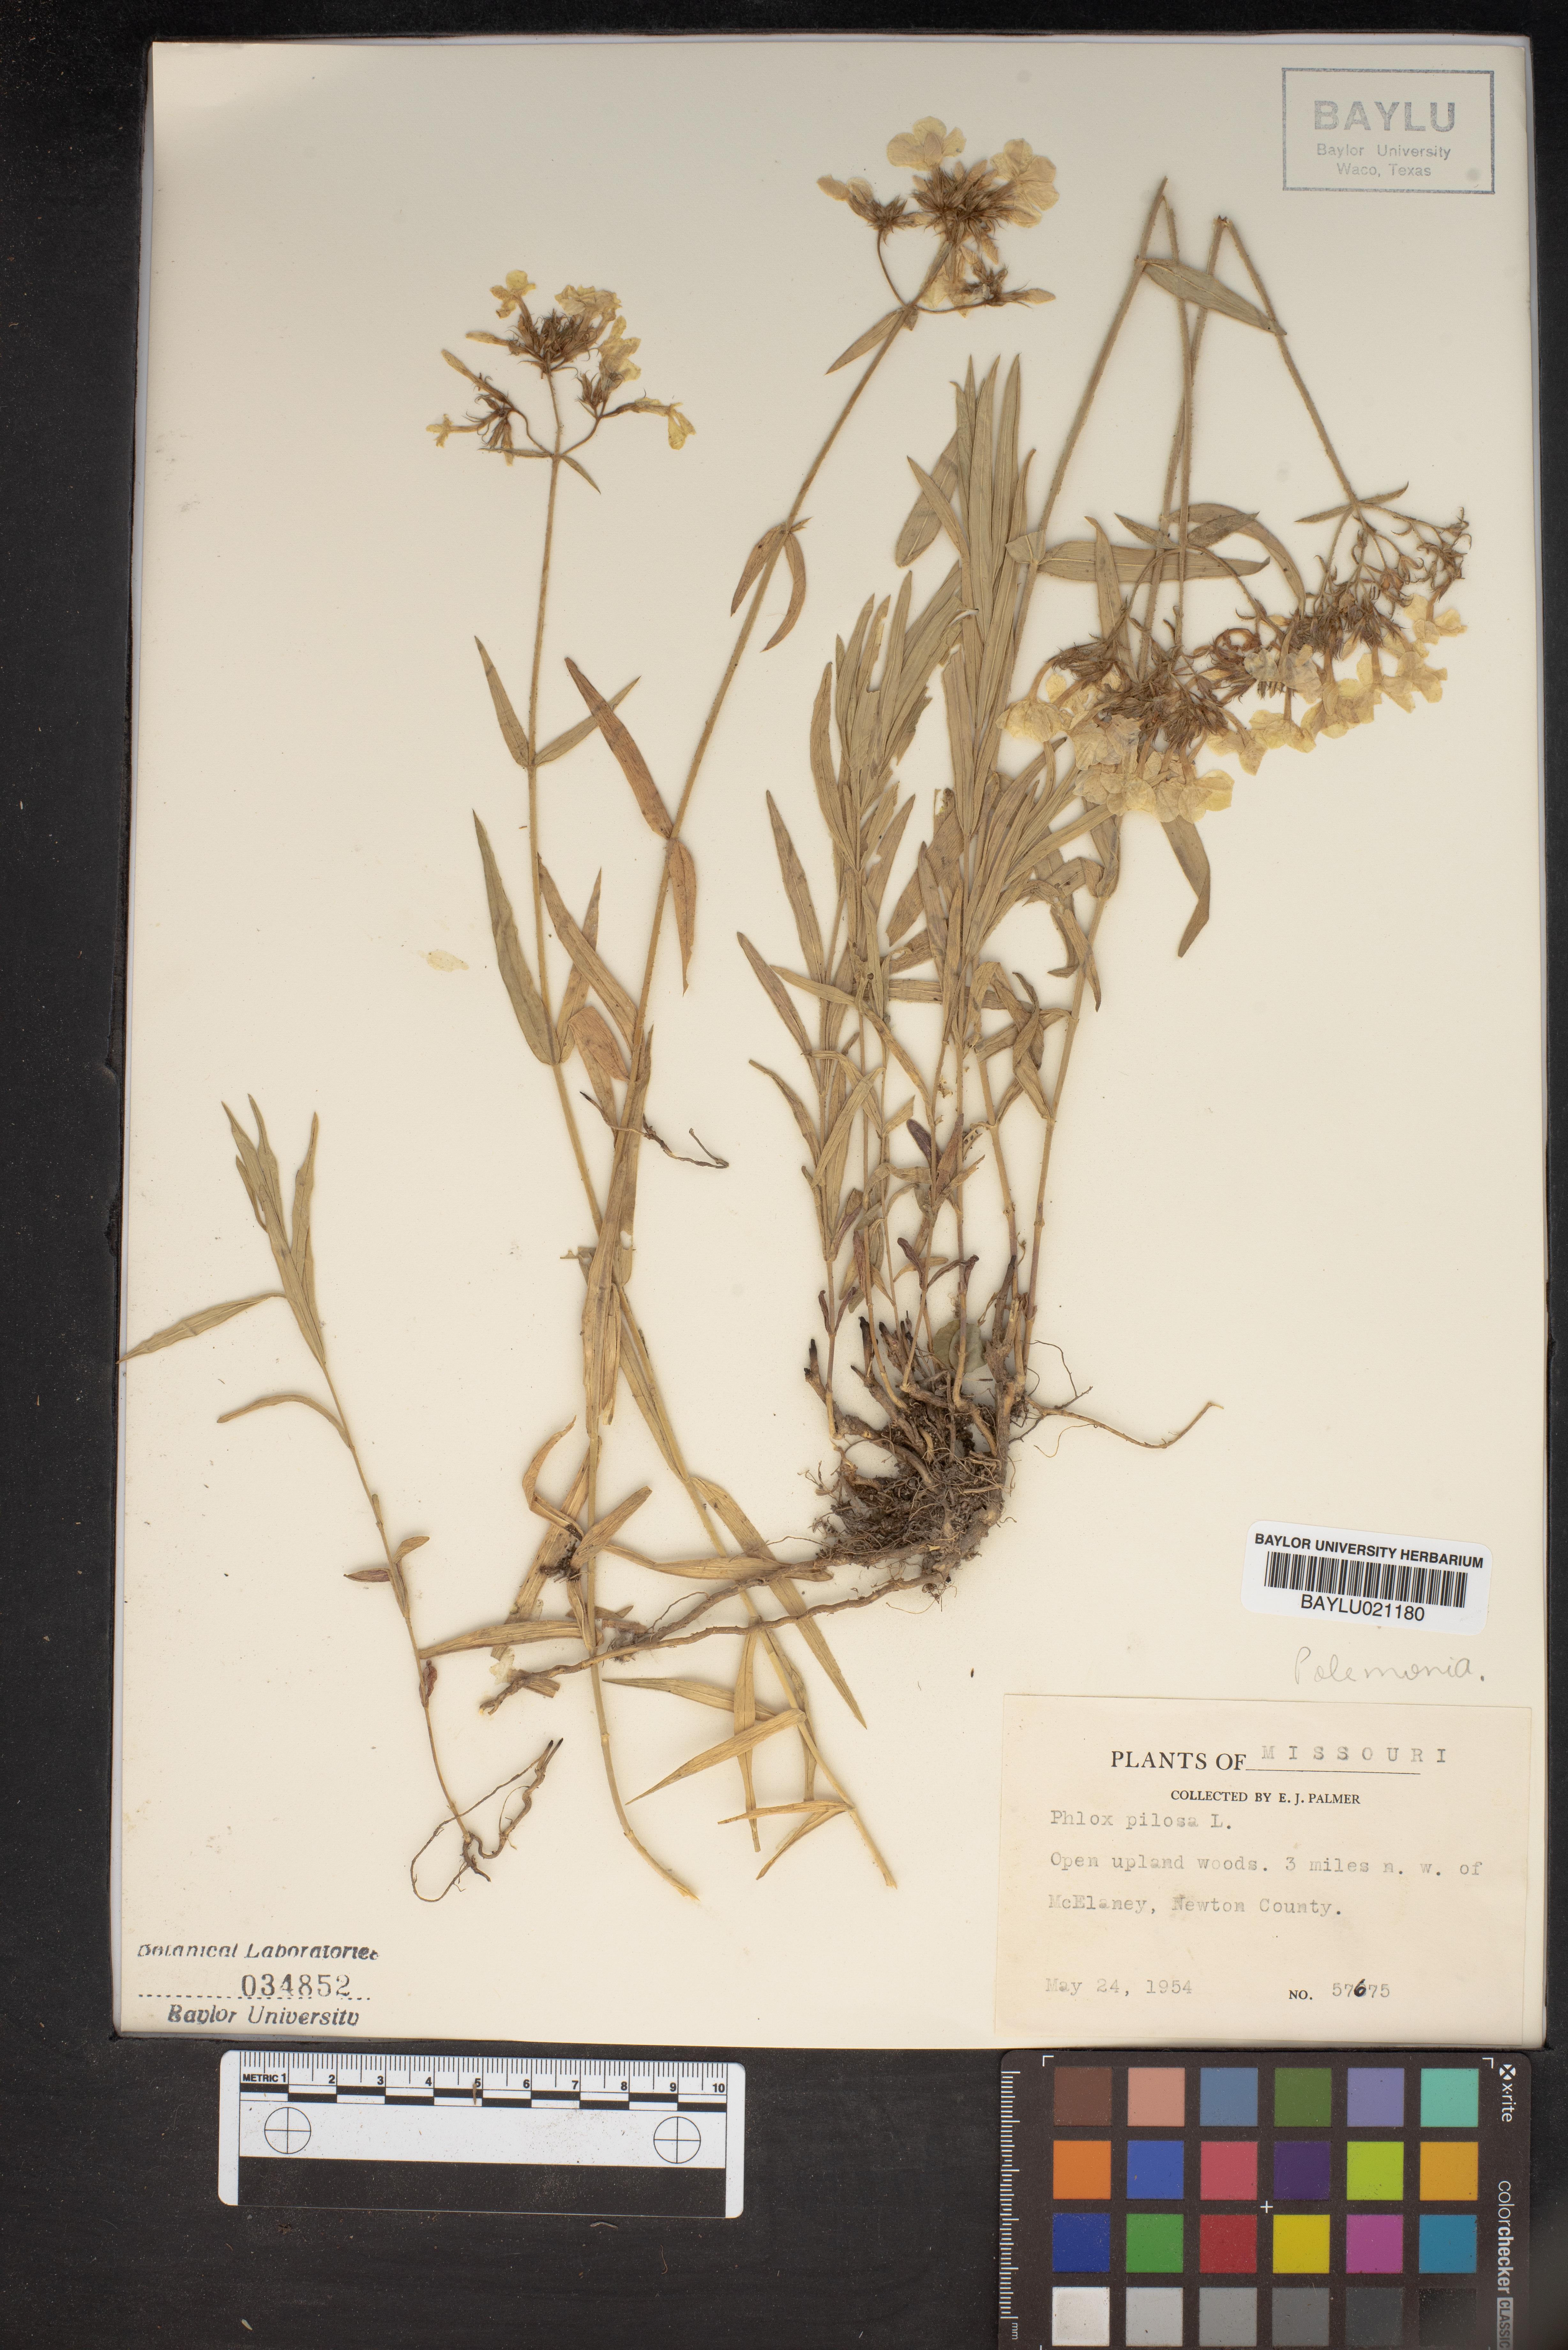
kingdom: Plantae
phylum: Tracheophyta
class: Magnoliopsida
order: Ericales
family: Polemoniaceae
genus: Phlox
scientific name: Phlox pilosa
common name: Prairie phlox
